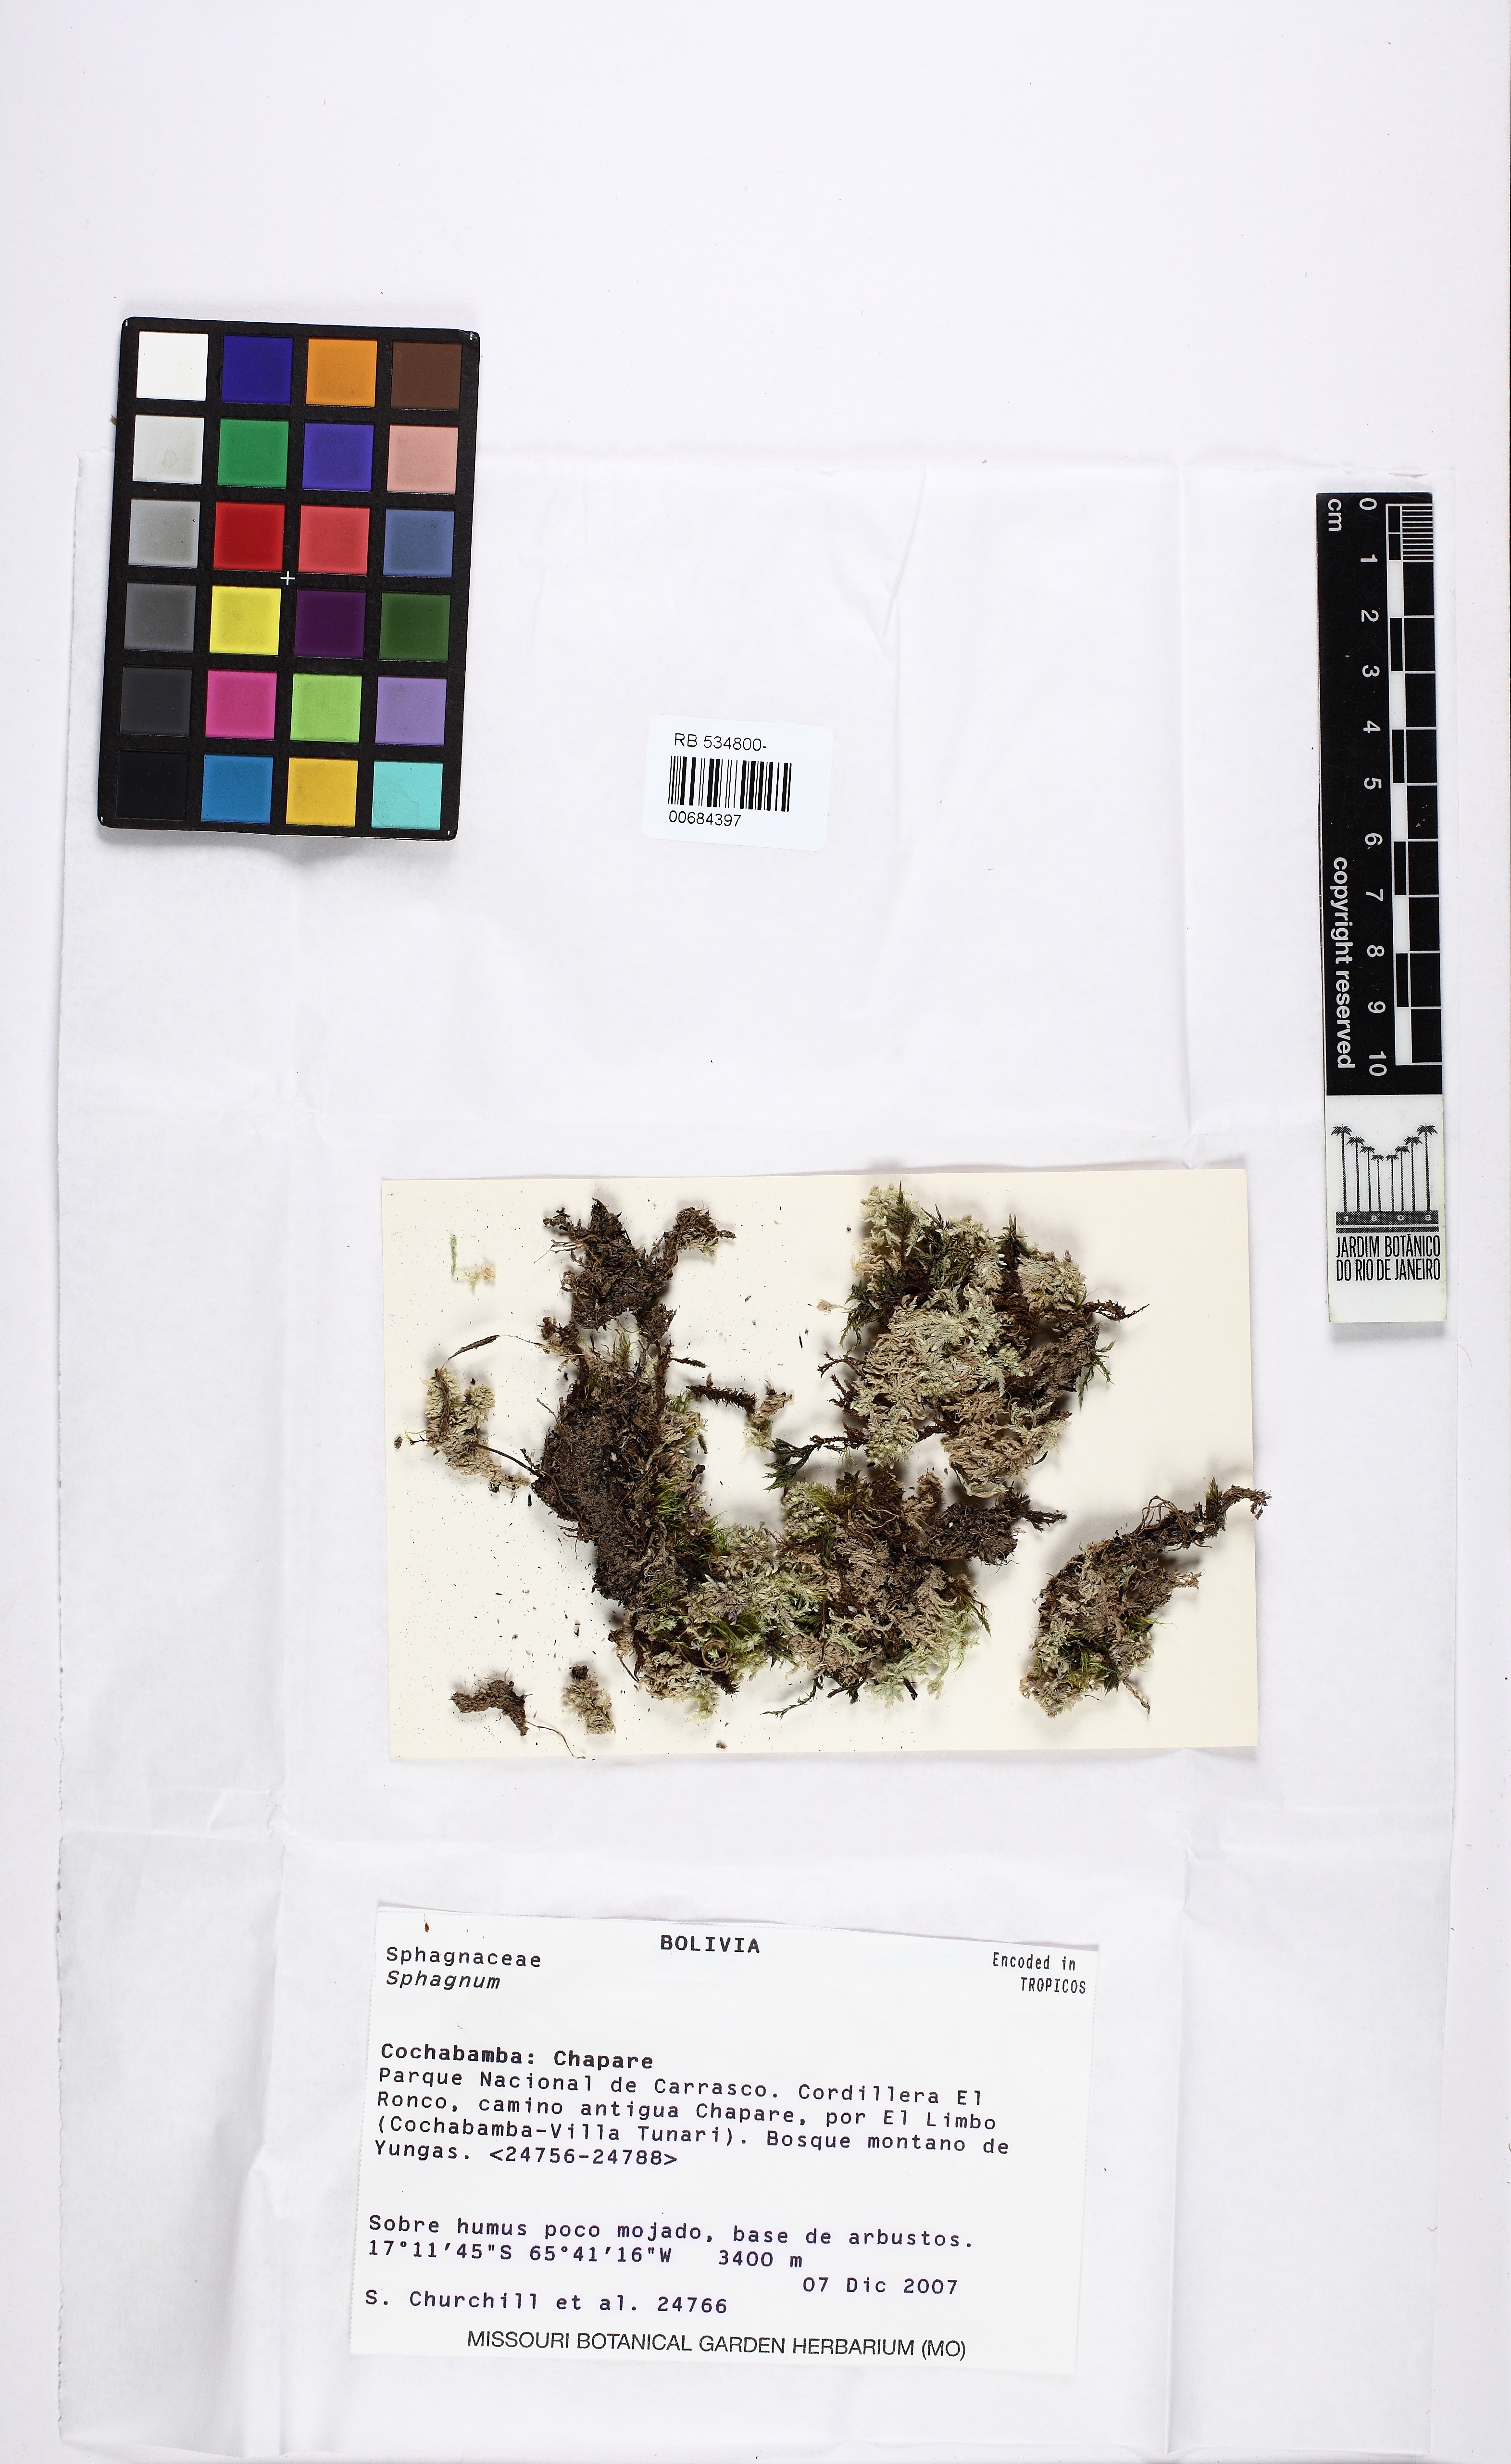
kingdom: Plantae
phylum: Bryophyta
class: Sphagnopsida
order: Sphagnales
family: Sphagnaceae
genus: Sphagnum
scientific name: Sphagnum
